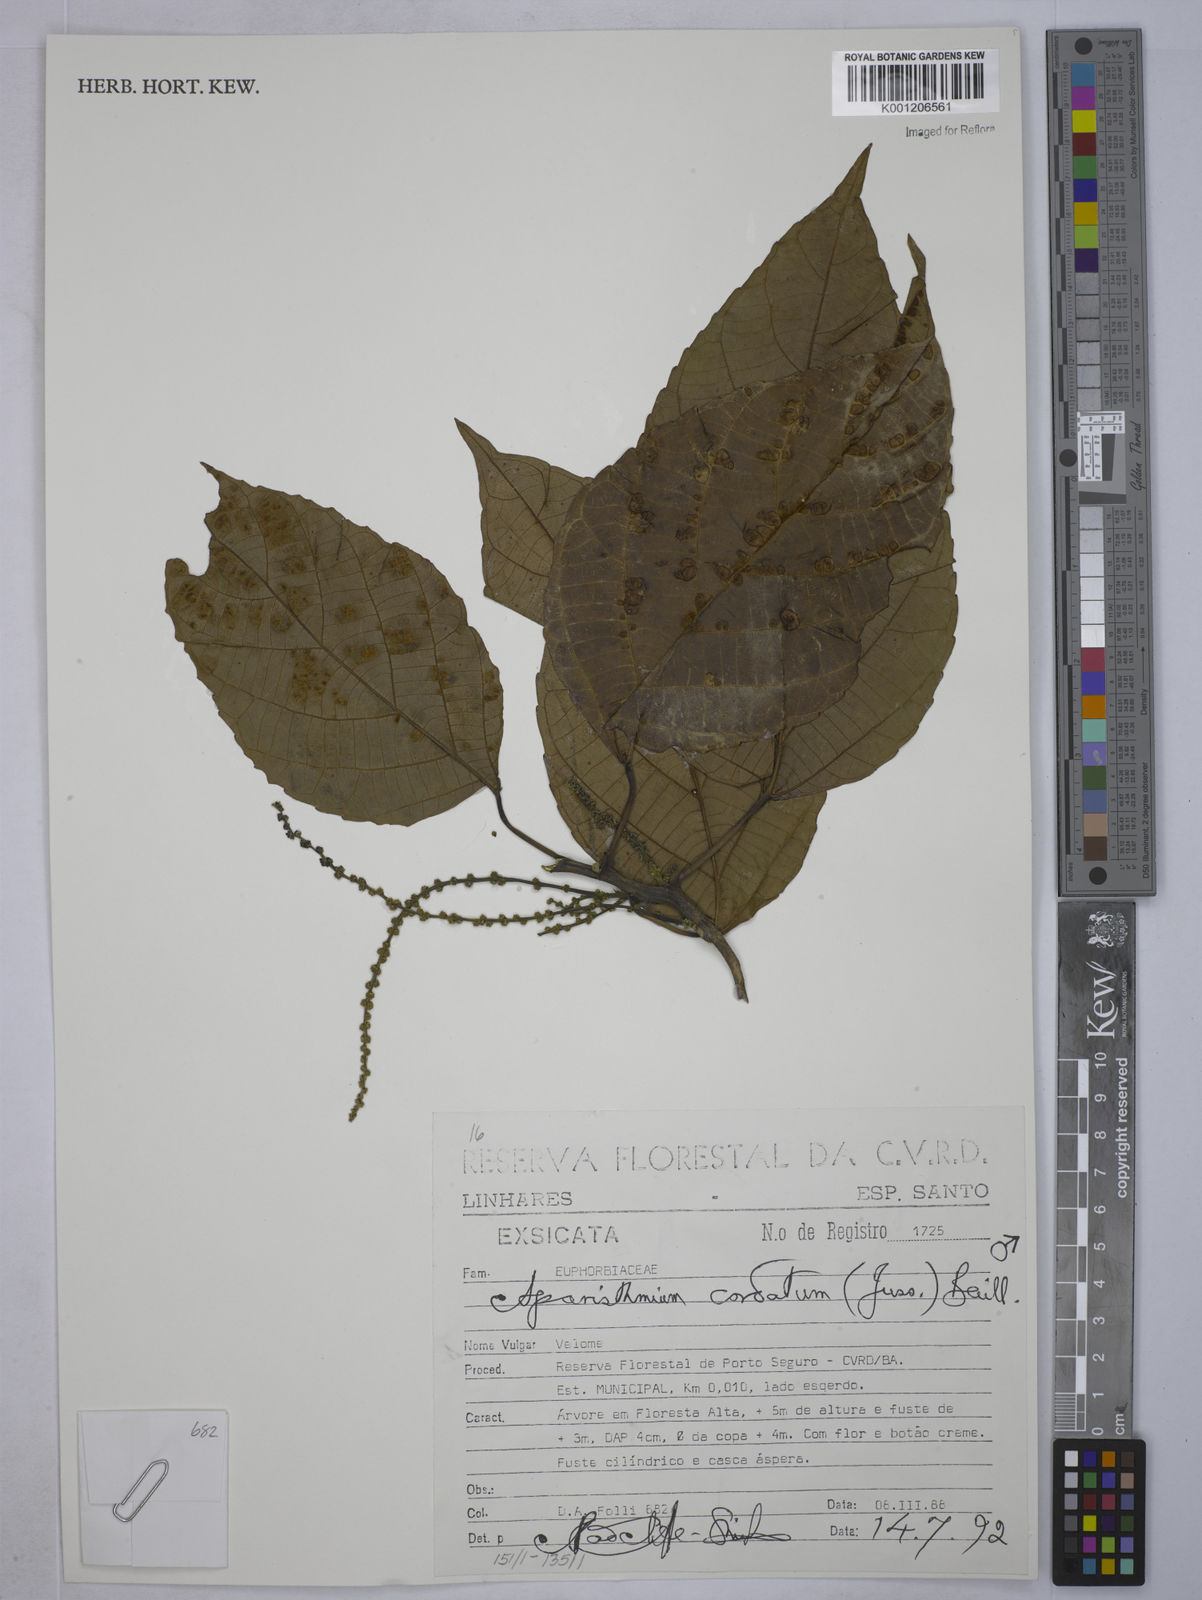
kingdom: Plantae
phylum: Tracheophyta
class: Magnoliopsida
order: Malpighiales
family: Euphorbiaceae
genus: Aparisthmium
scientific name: Aparisthmium cordatum
